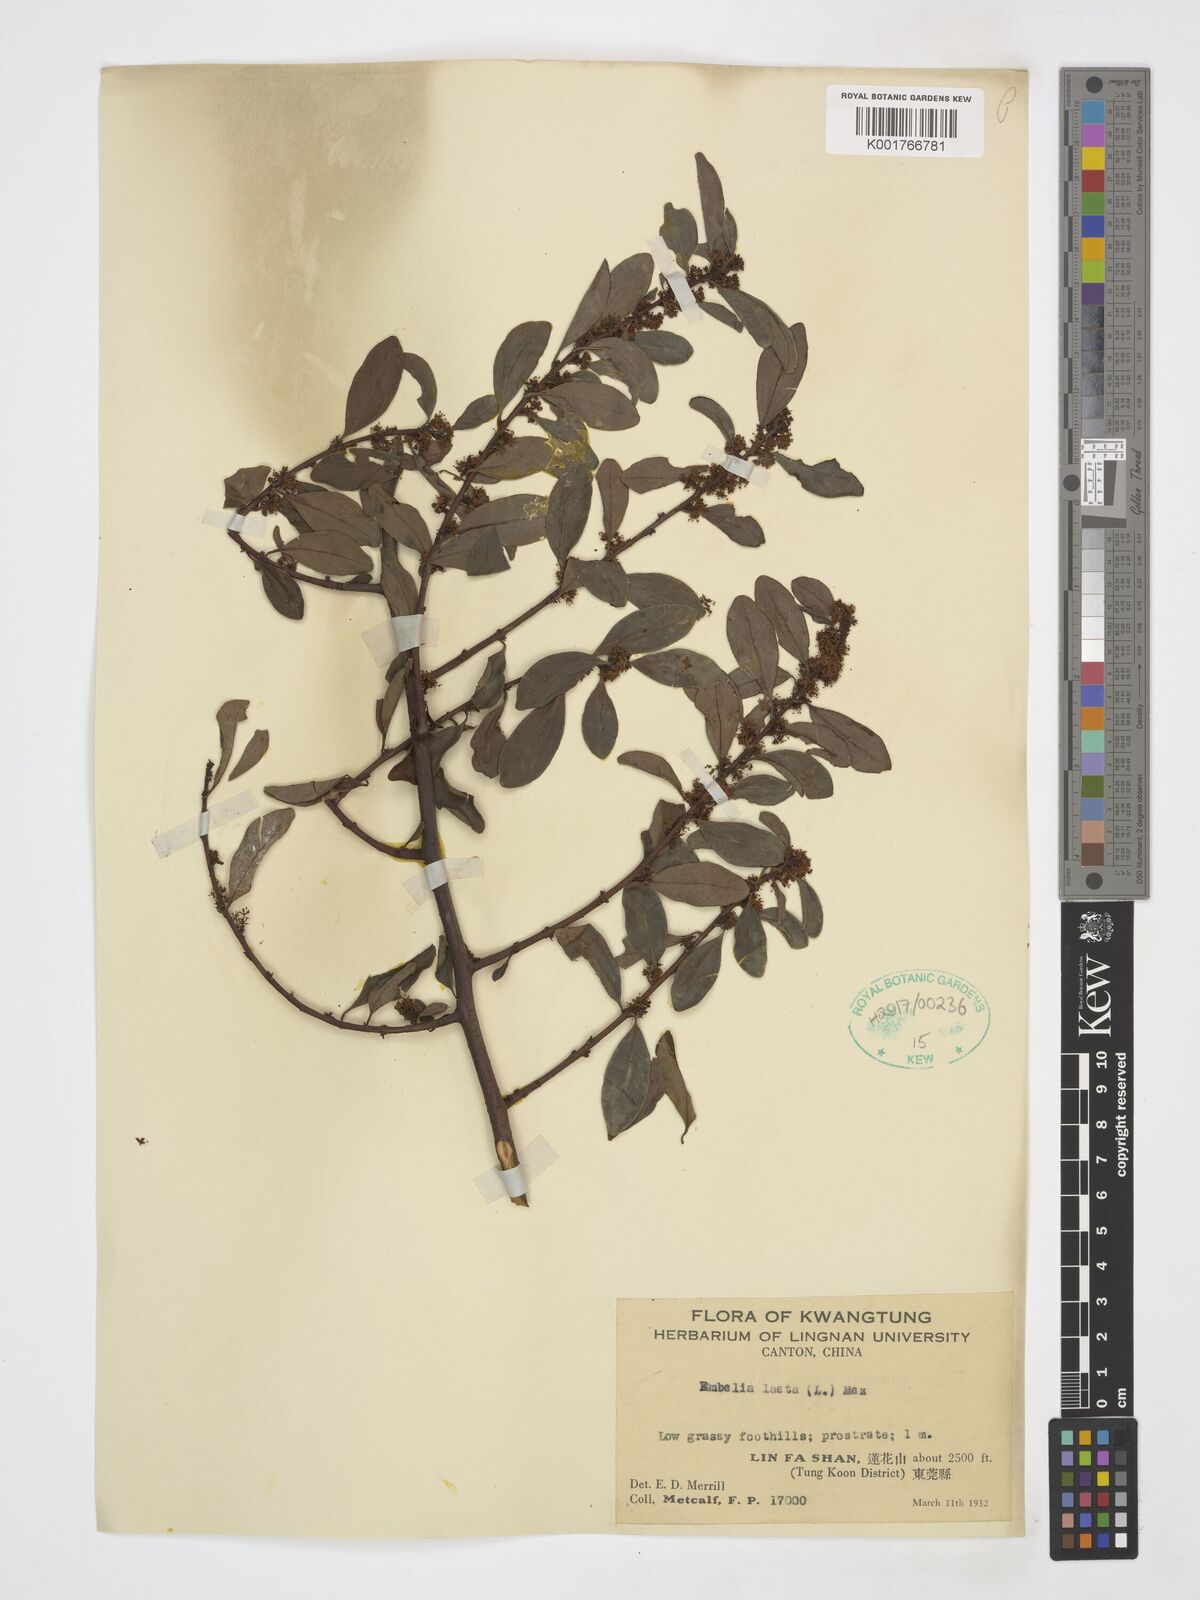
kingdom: Plantae
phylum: Tracheophyta
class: Magnoliopsida
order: Ericales
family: Primulaceae
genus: Embelia
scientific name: Embelia laeta
